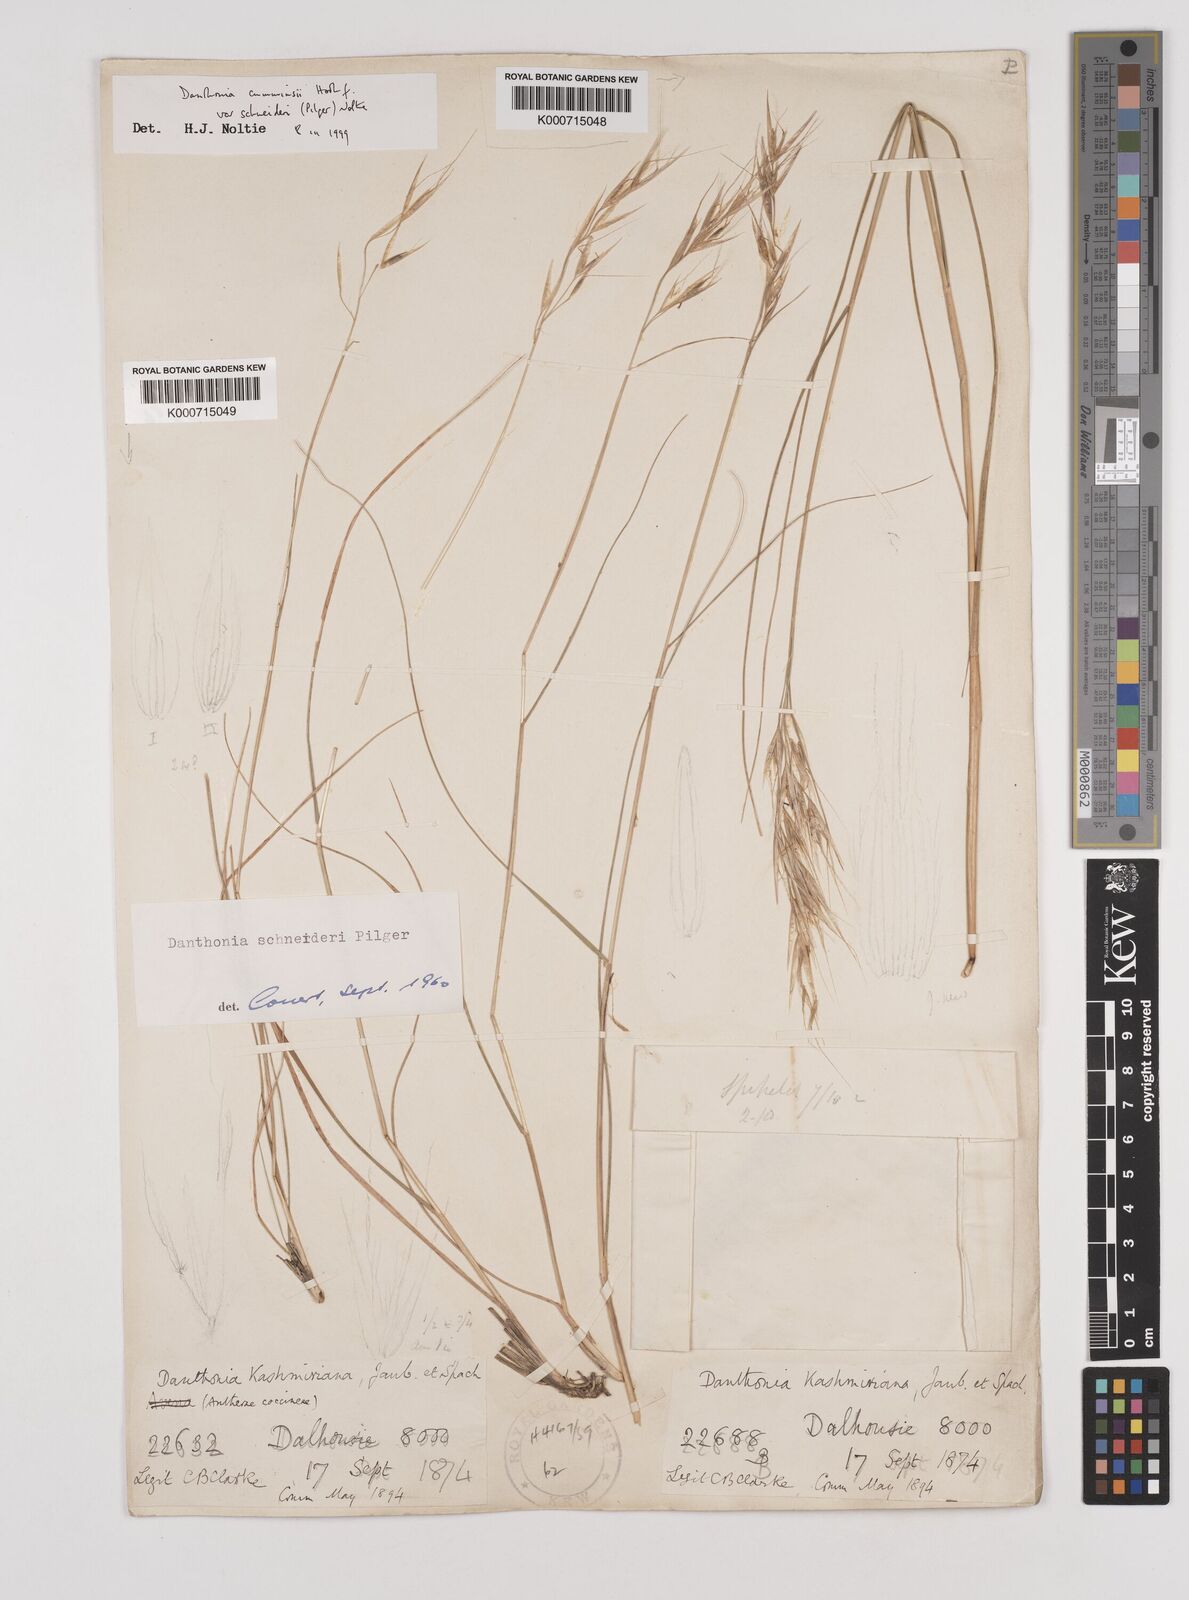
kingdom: Plantae
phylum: Tracheophyta
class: Liliopsida
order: Poales
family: Poaceae
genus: Rytidosperma
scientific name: Rytidosperma
